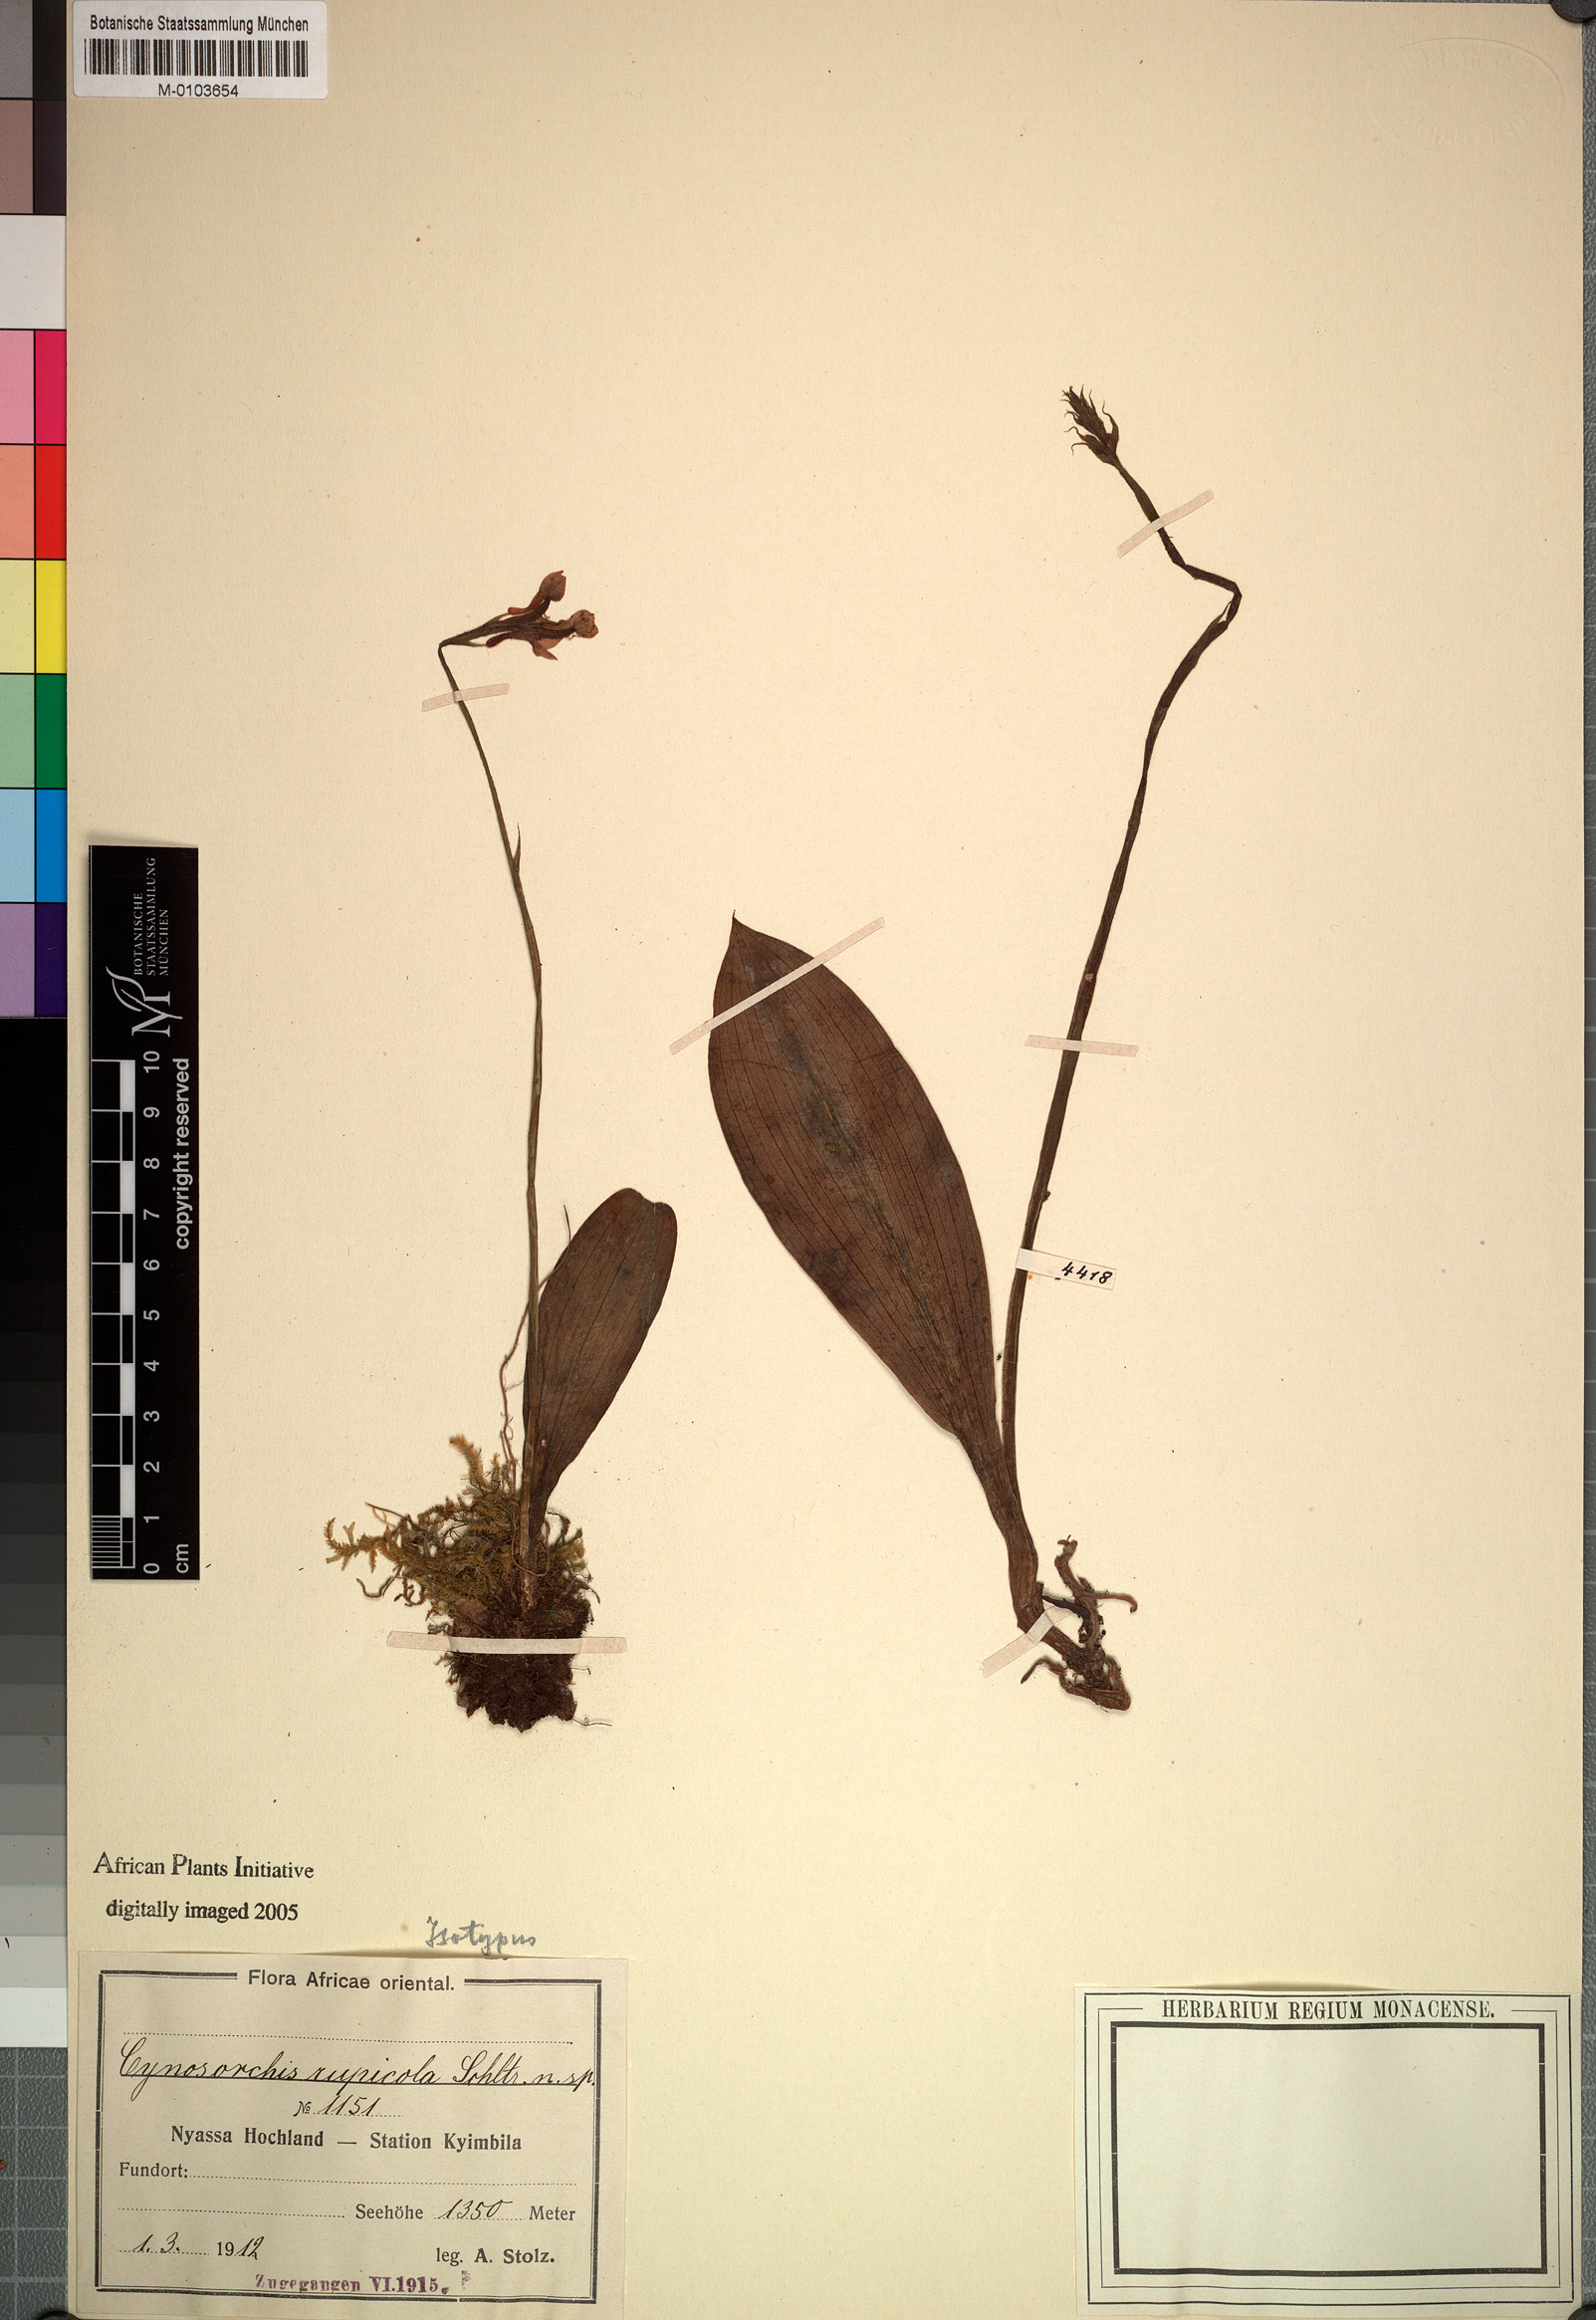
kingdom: Plantae
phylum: Tracheophyta
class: Liliopsida
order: Asparagales
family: Orchidaceae
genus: Cynorkis
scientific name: Cynorkis
